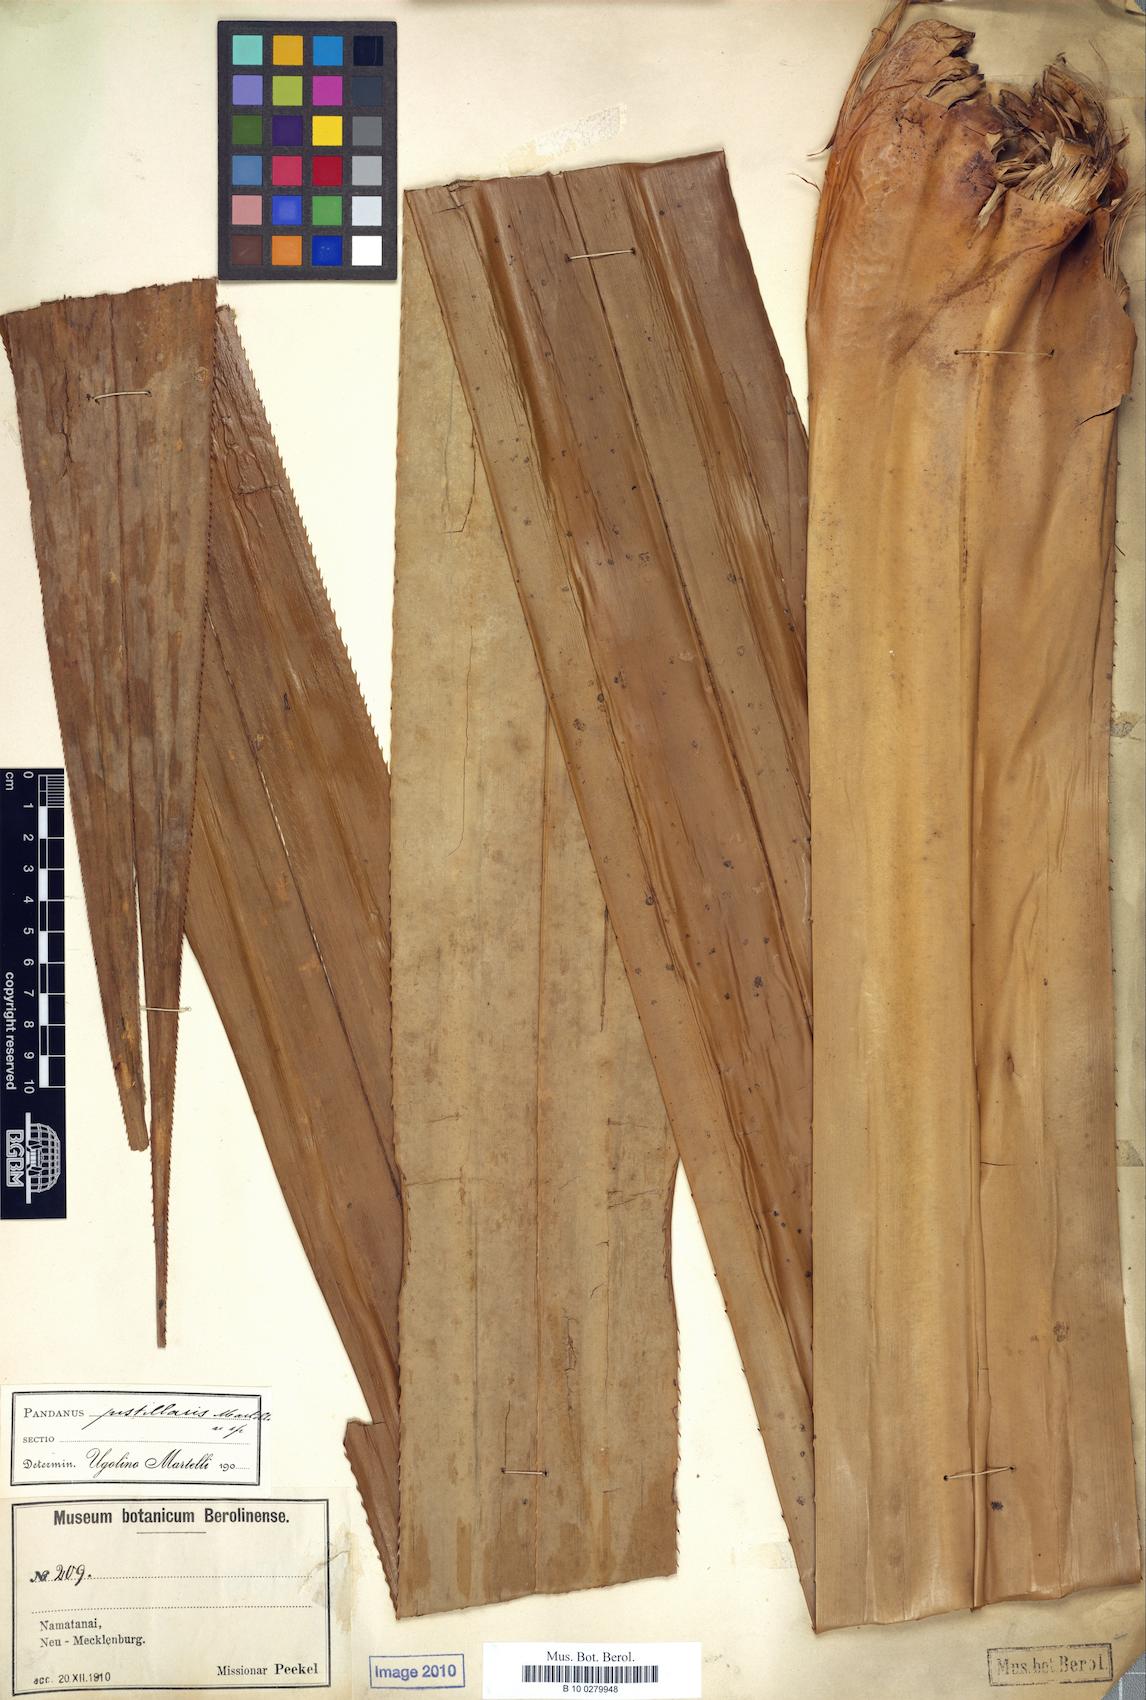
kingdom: Plantae
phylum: Tracheophyta
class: Liliopsida
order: Pandanales
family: Pandanaceae
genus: Pandanus
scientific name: Pandanus papuanus
